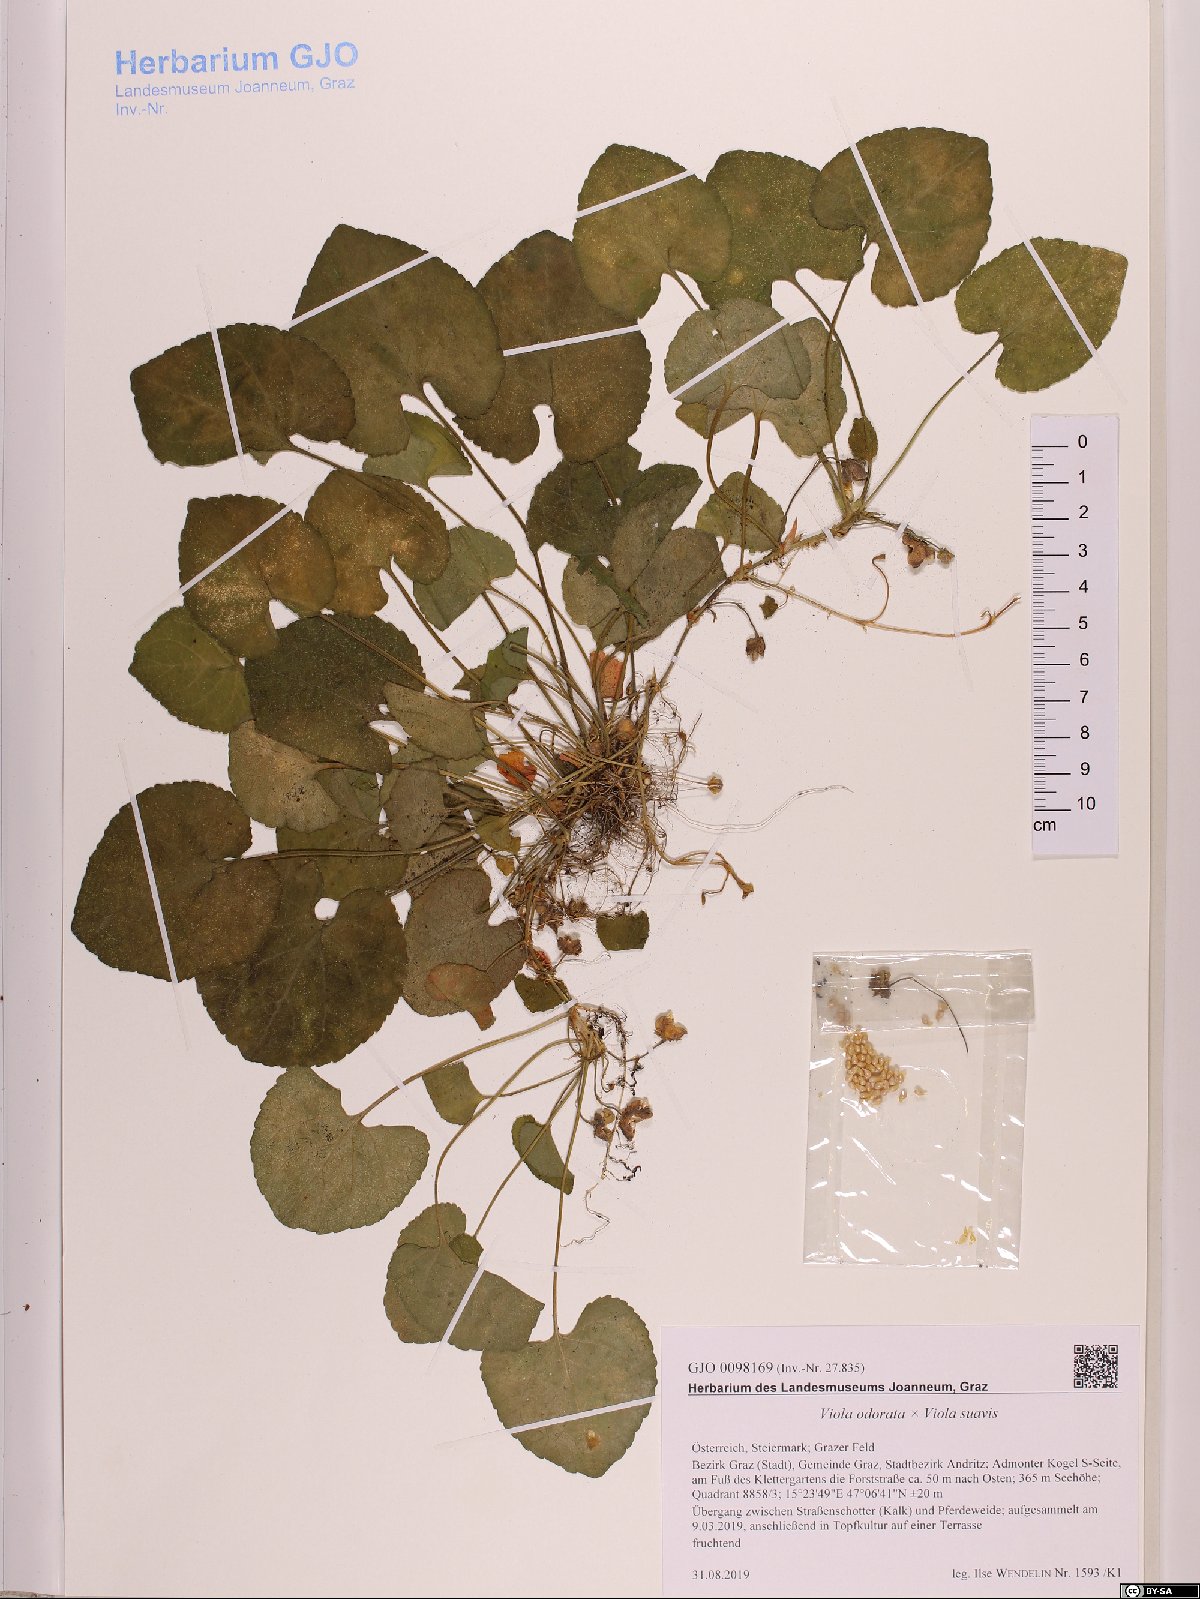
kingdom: Plantae
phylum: Tracheophyta
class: Magnoliopsida
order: Malpighiales
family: Violaceae
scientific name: Violaceae
